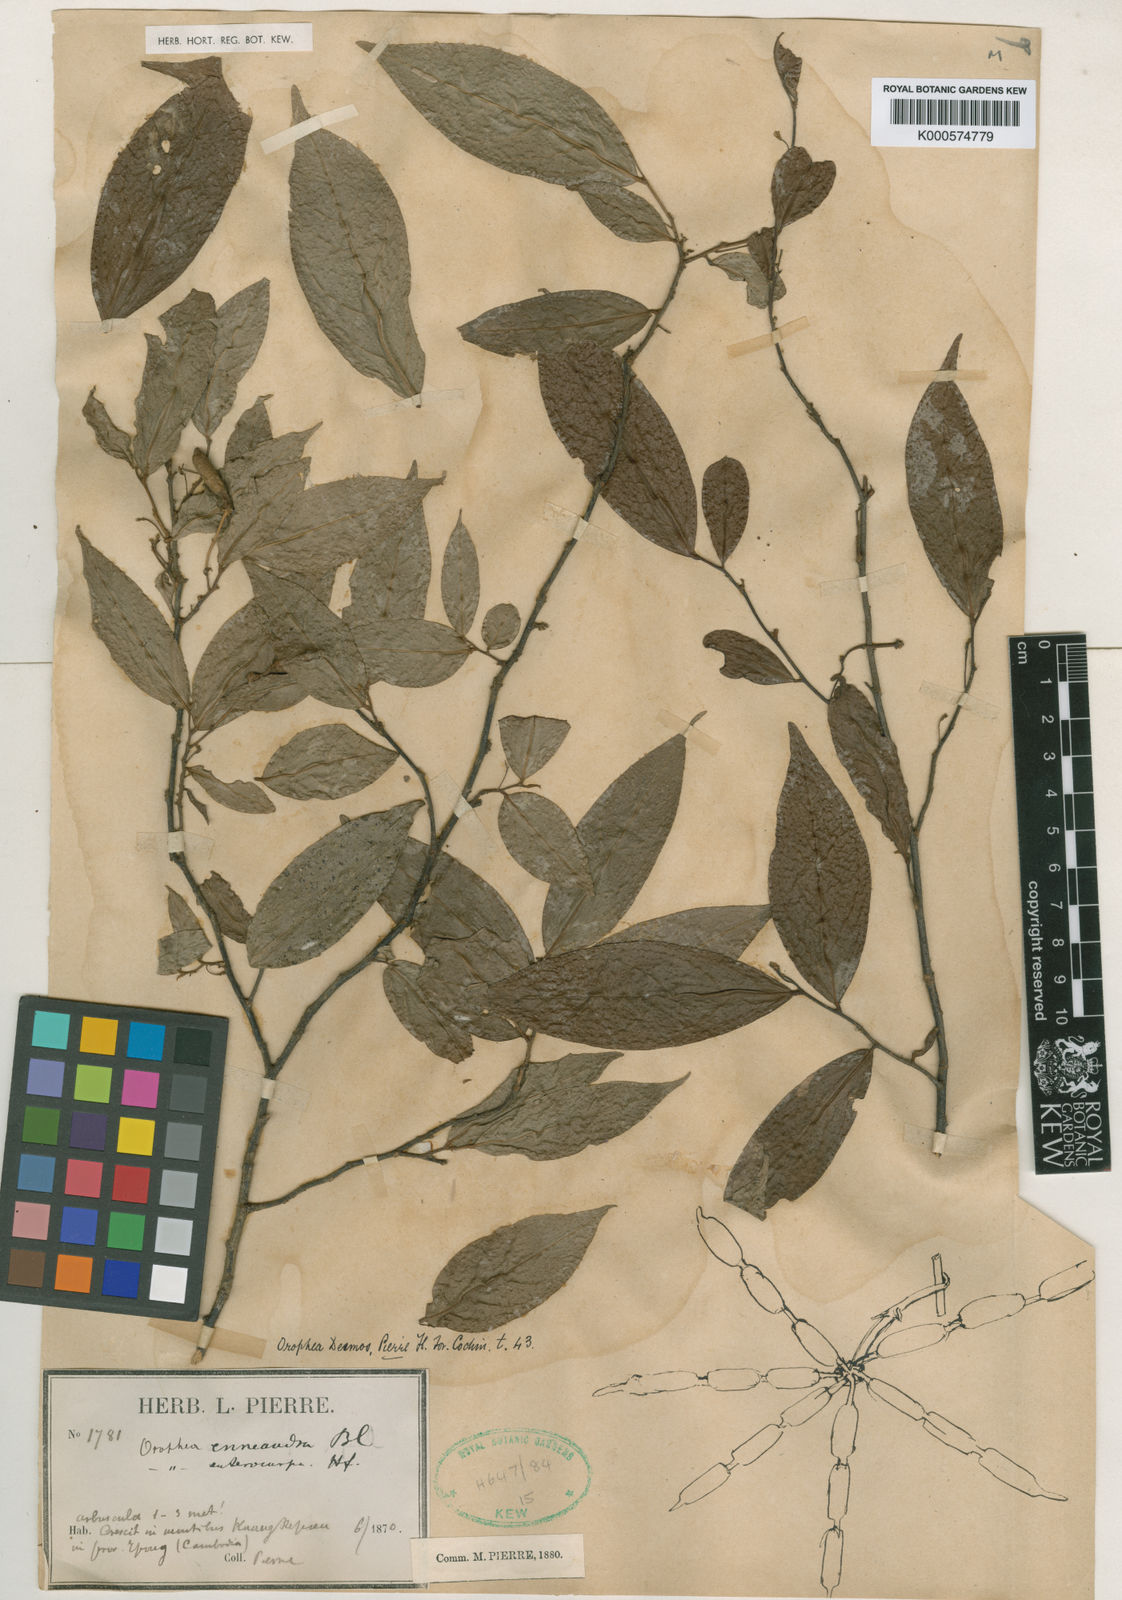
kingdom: Plantae
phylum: Tracheophyta
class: Magnoliopsida
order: Magnoliales
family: Annonaceae
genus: Orophea
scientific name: Orophea desmos
